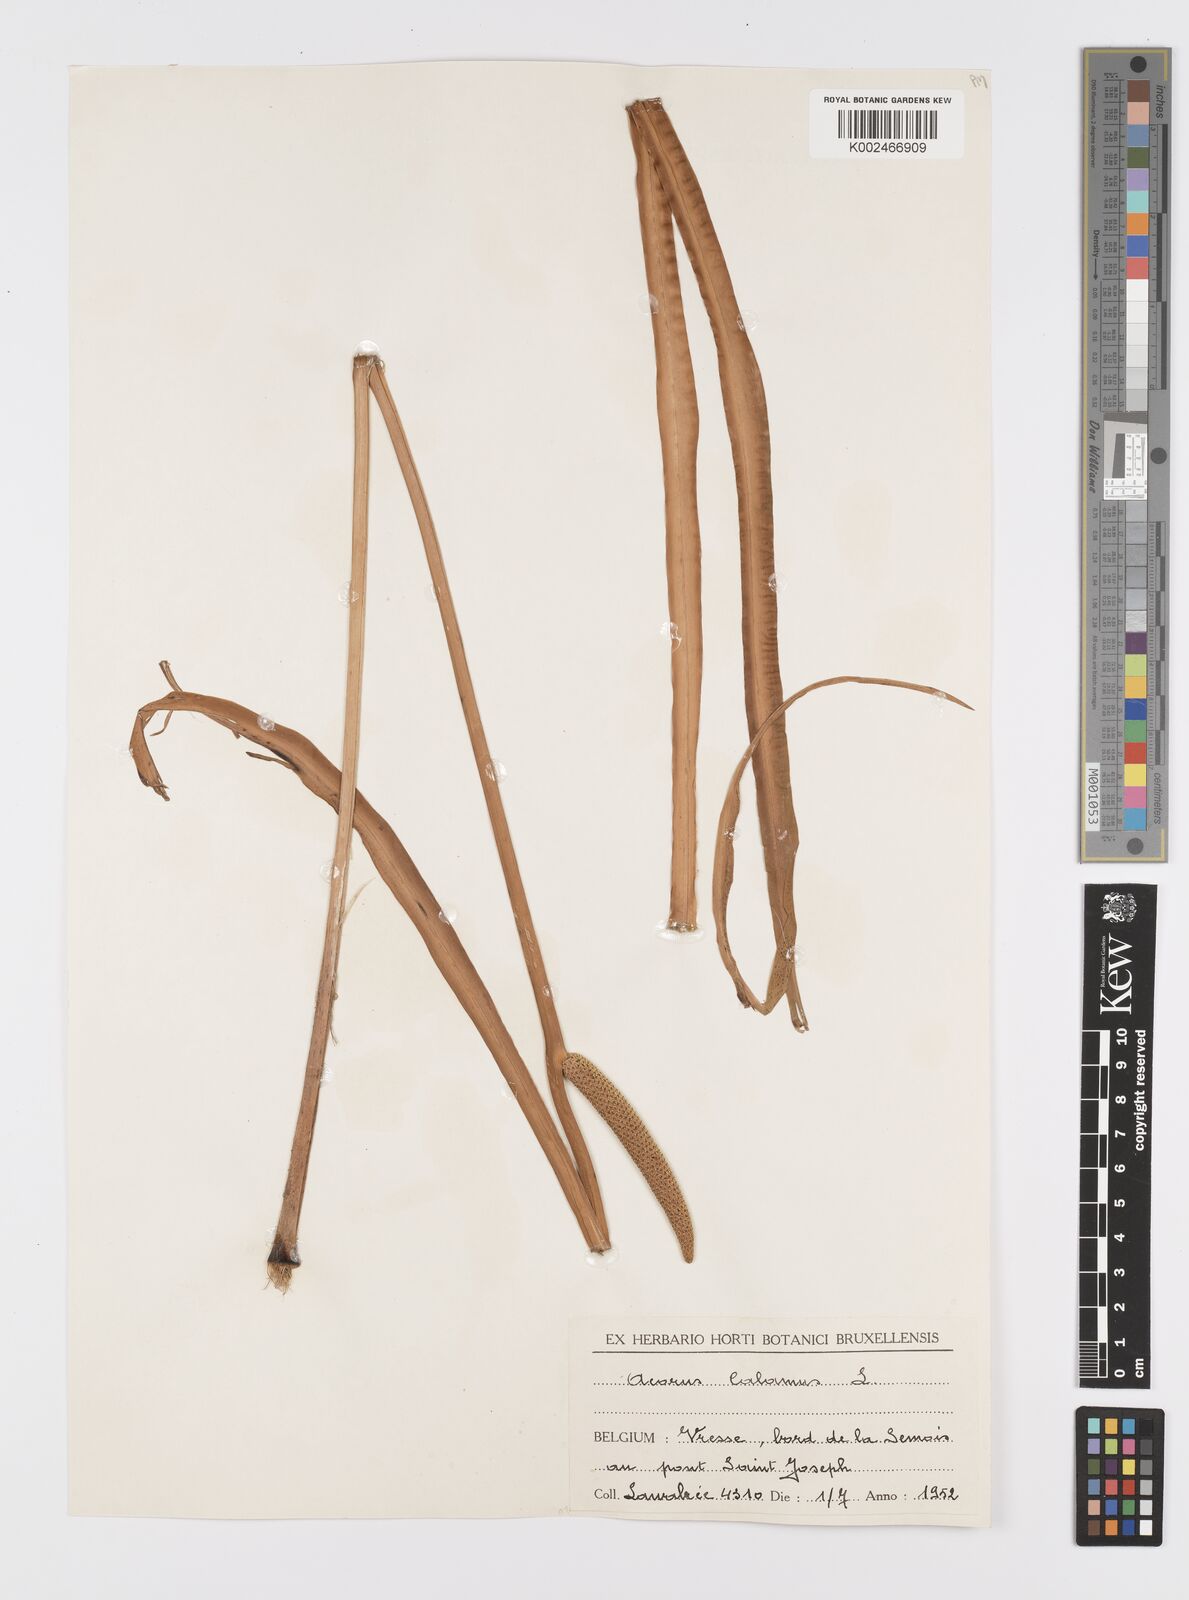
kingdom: Plantae
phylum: Tracheophyta
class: Liliopsida
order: Acorales
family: Acoraceae
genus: Acorus
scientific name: Acorus calamus
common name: Sweet-flag
